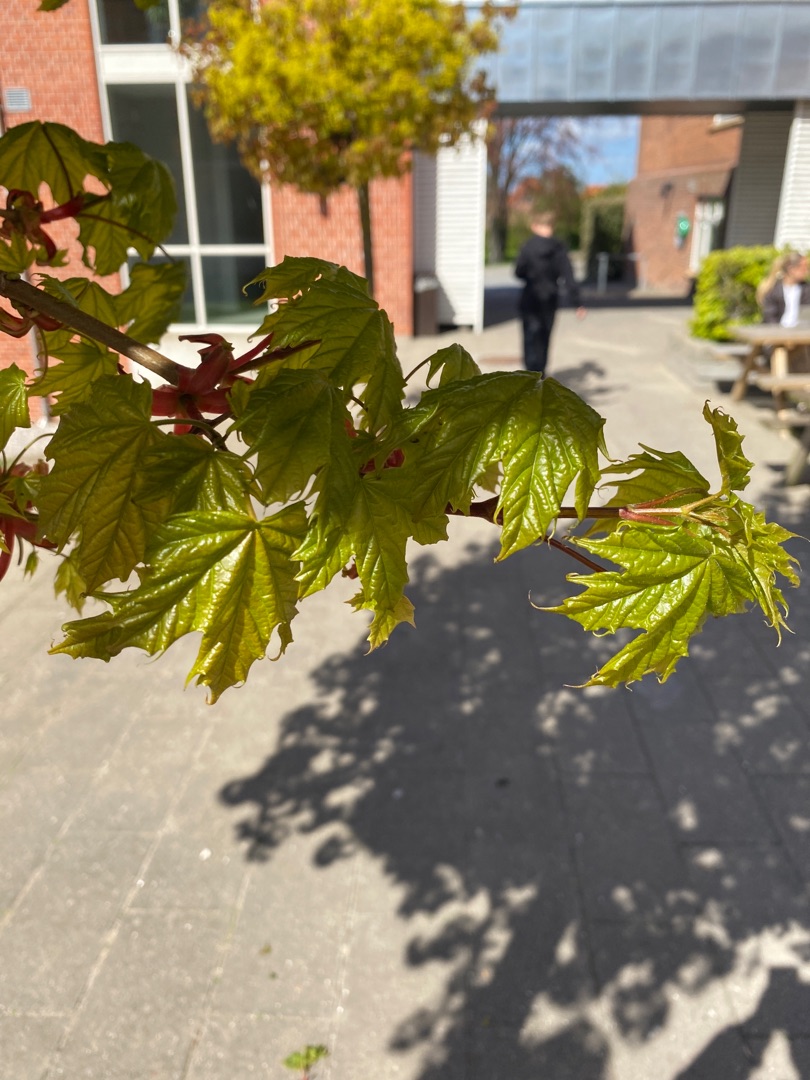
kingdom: Plantae
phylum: Tracheophyta
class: Magnoliopsida
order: Sapindales
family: Sapindaceae
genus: Acer
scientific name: Acer platanoides
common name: Spids-løn
